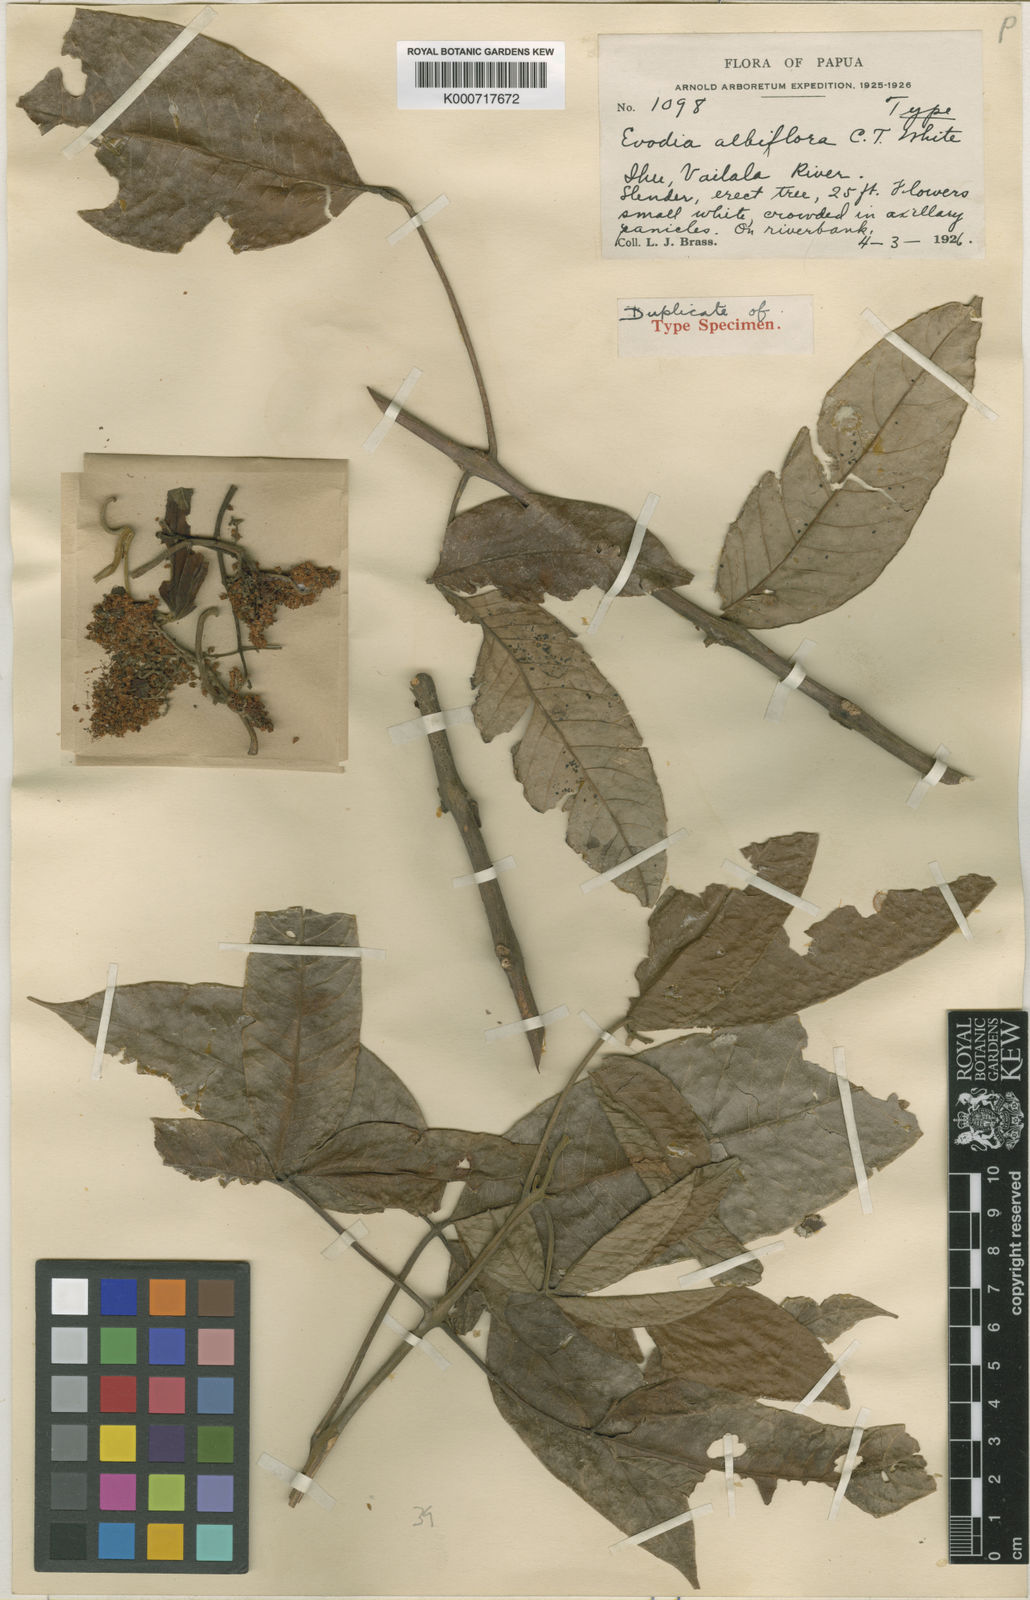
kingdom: Plantae
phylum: Tracheophyta
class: Magnoliopsida
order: Sapindales
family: Rutaceae
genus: Melicope
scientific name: Melicope denhamii
